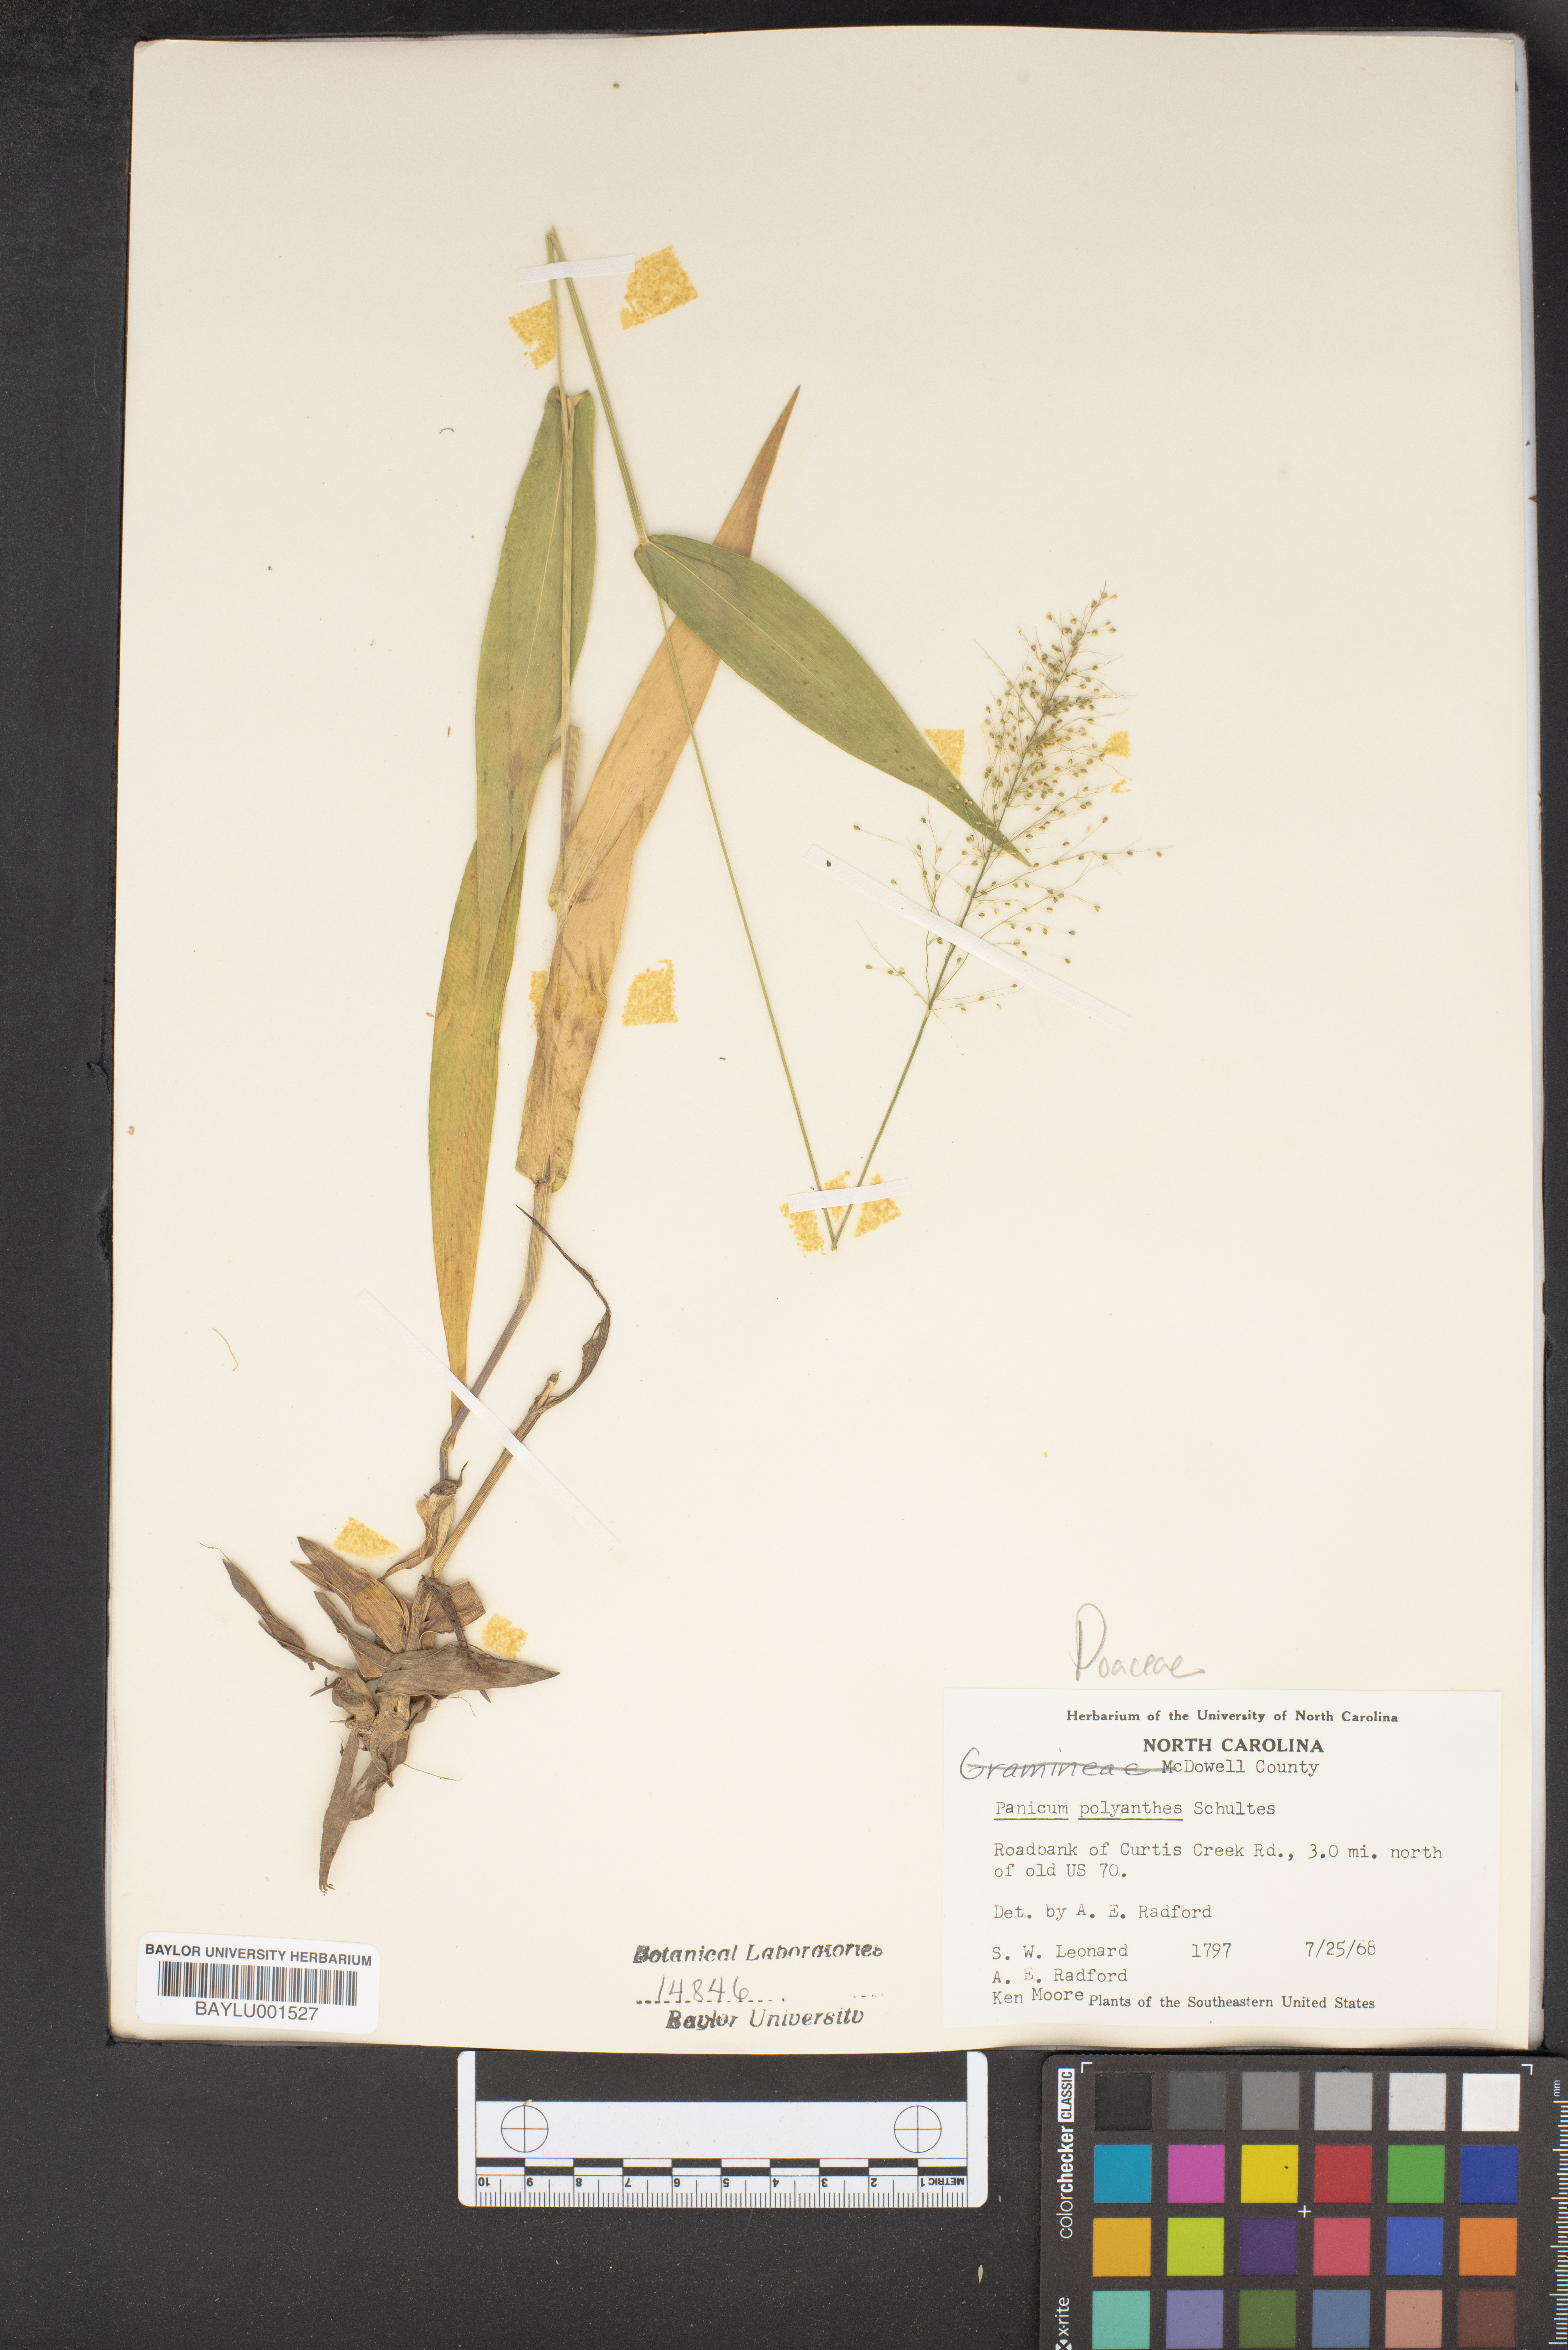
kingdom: Plantae
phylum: Tracheophyta
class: Liliopsida
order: Poales
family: Poaceae
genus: Dichanthelium
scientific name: Dichanthelium polyanthes
